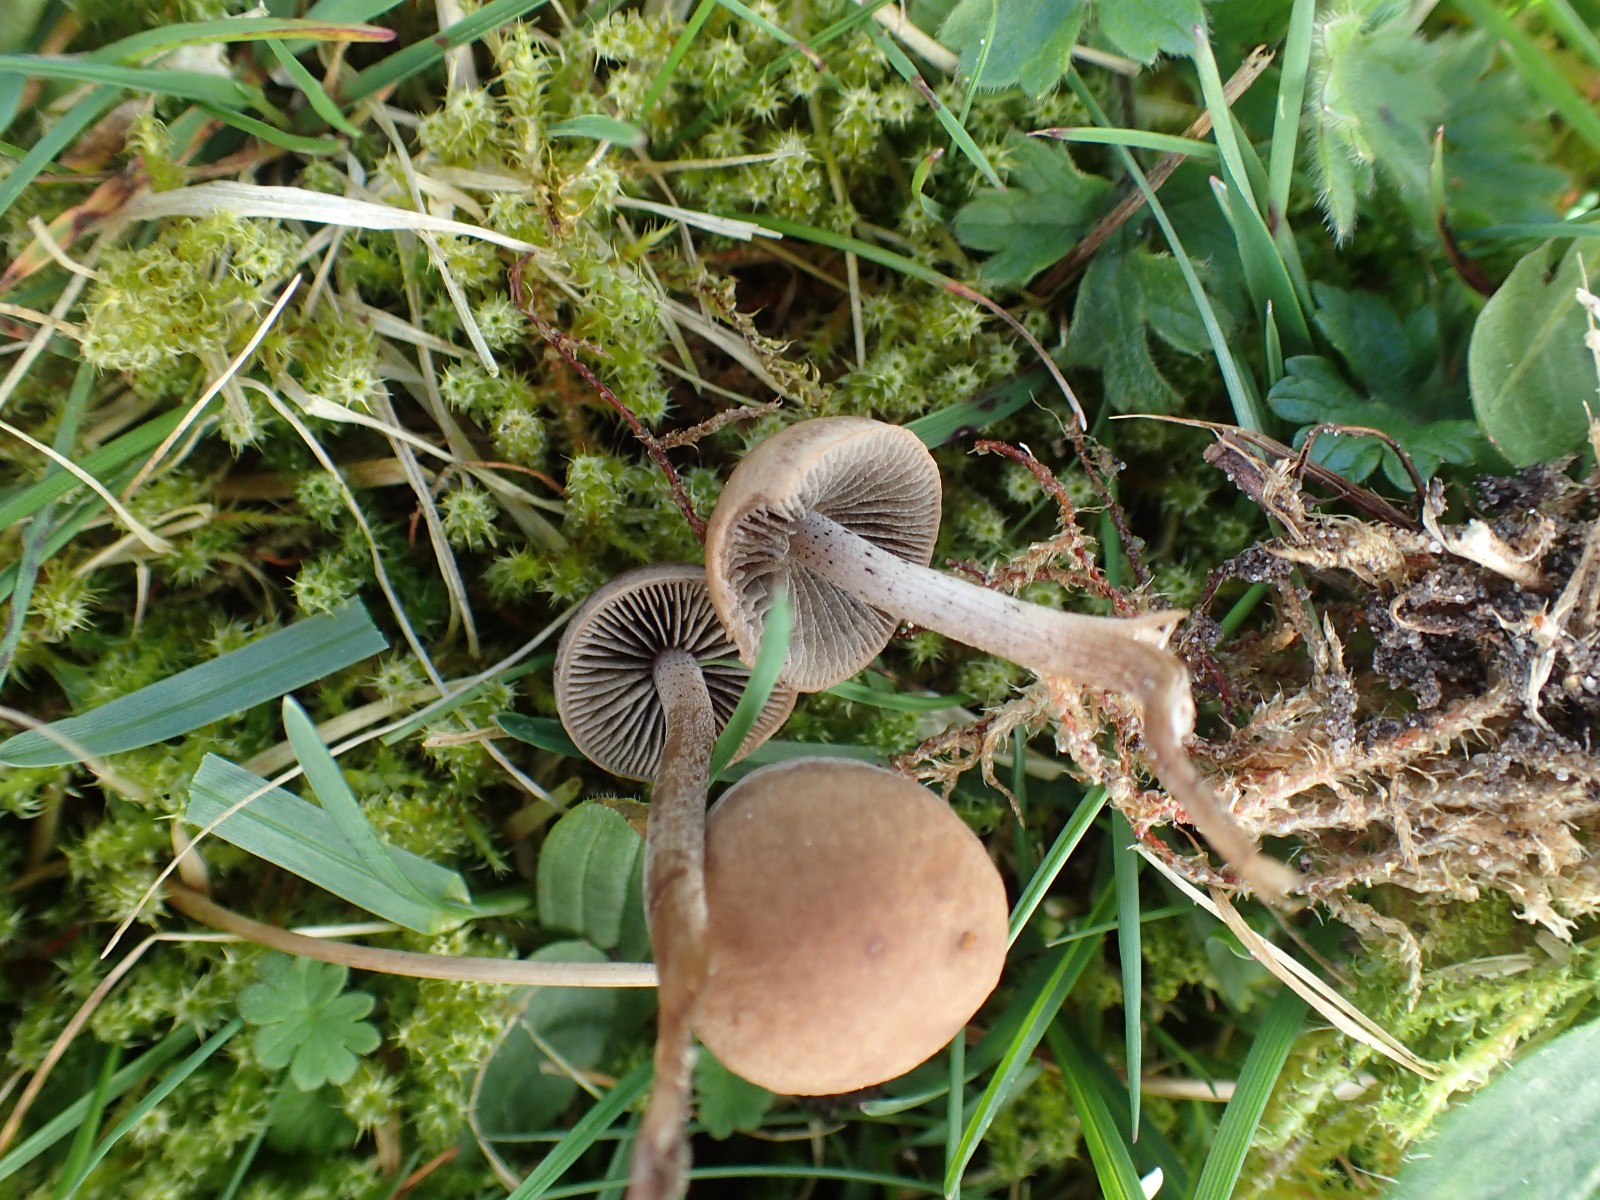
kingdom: Fungi
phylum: Basidiomycota
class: Agaricomycetes
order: Agaricales
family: Bolbitiaceae
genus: Panaeolus
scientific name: Panaeolus fimicola
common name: tidlig glanshat
